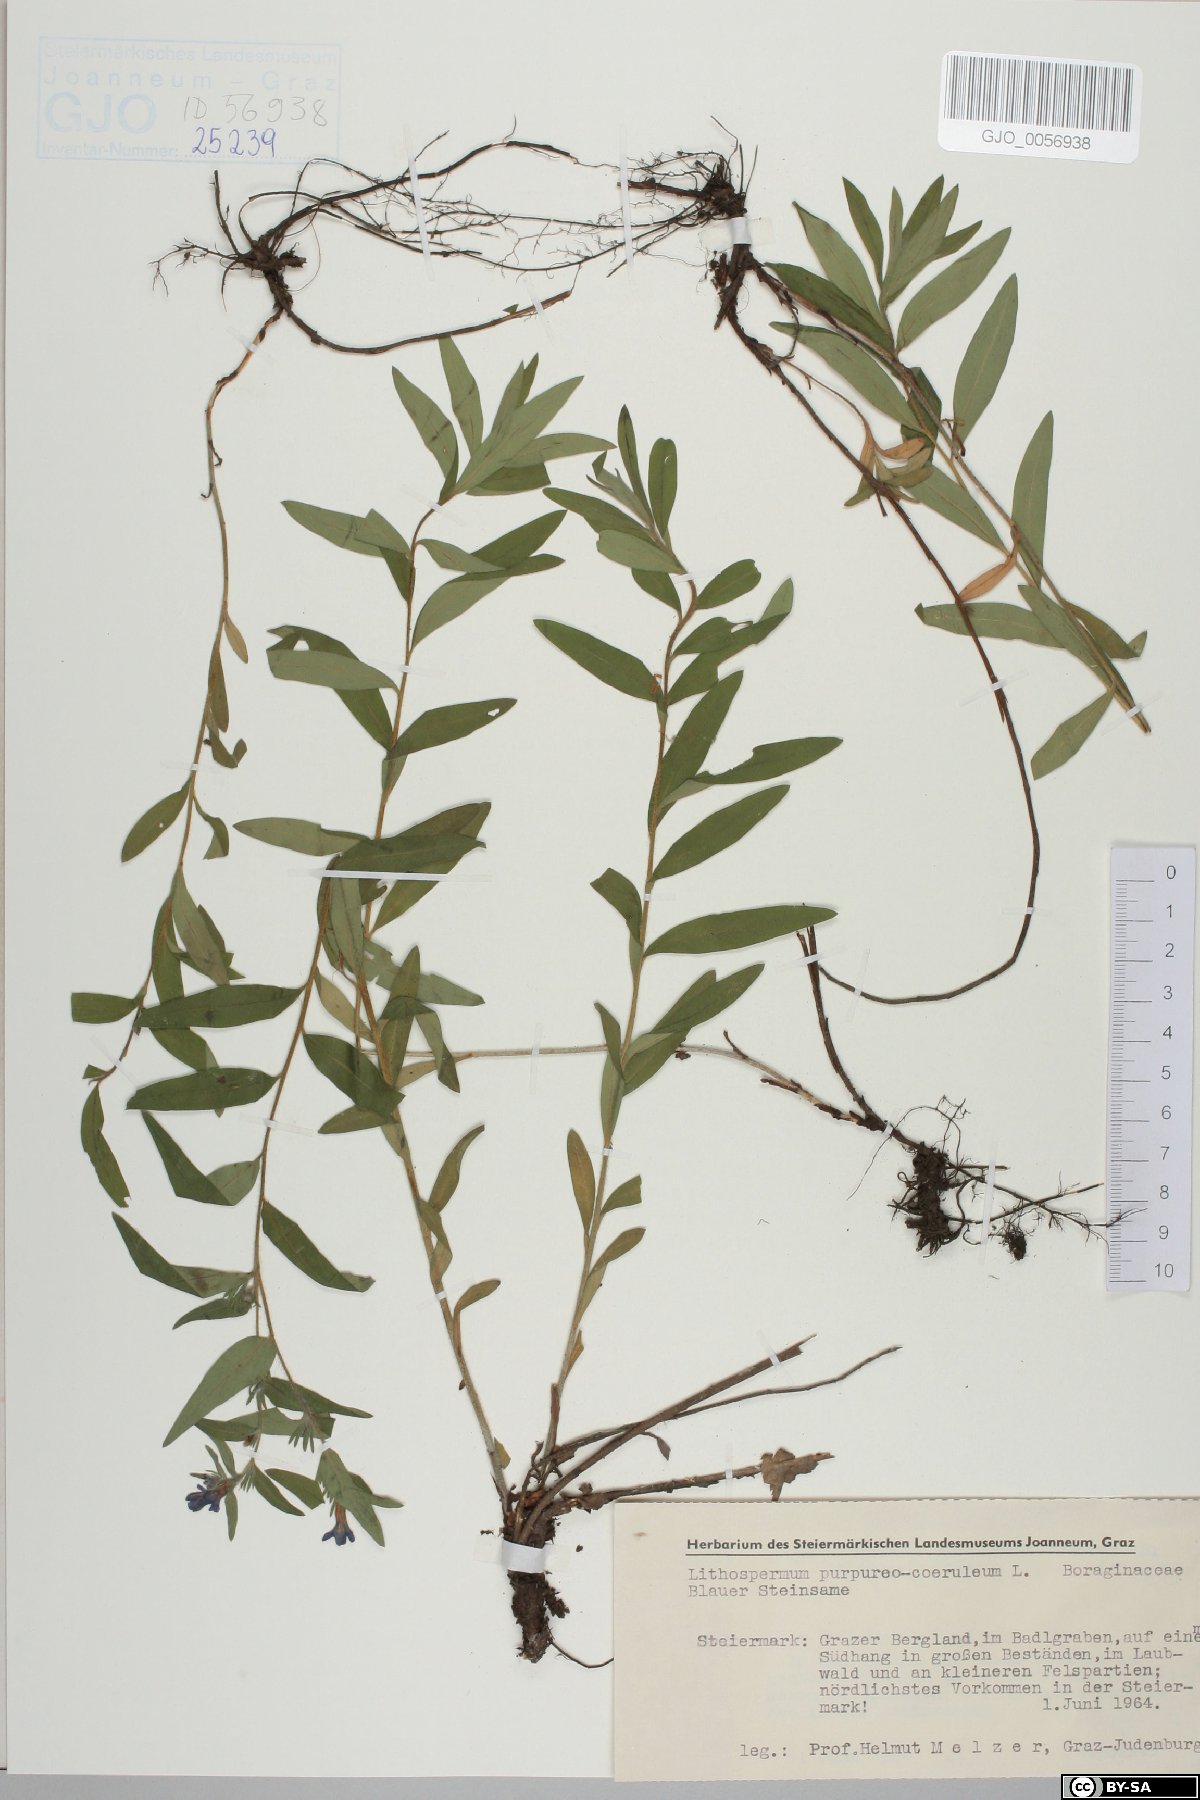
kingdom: Plantae
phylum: Tracheophyta
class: Magnoliopsida
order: Boraginales
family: Boraginaceae
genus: Aegonychon
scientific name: Aegonychon purpurocaeruleum
